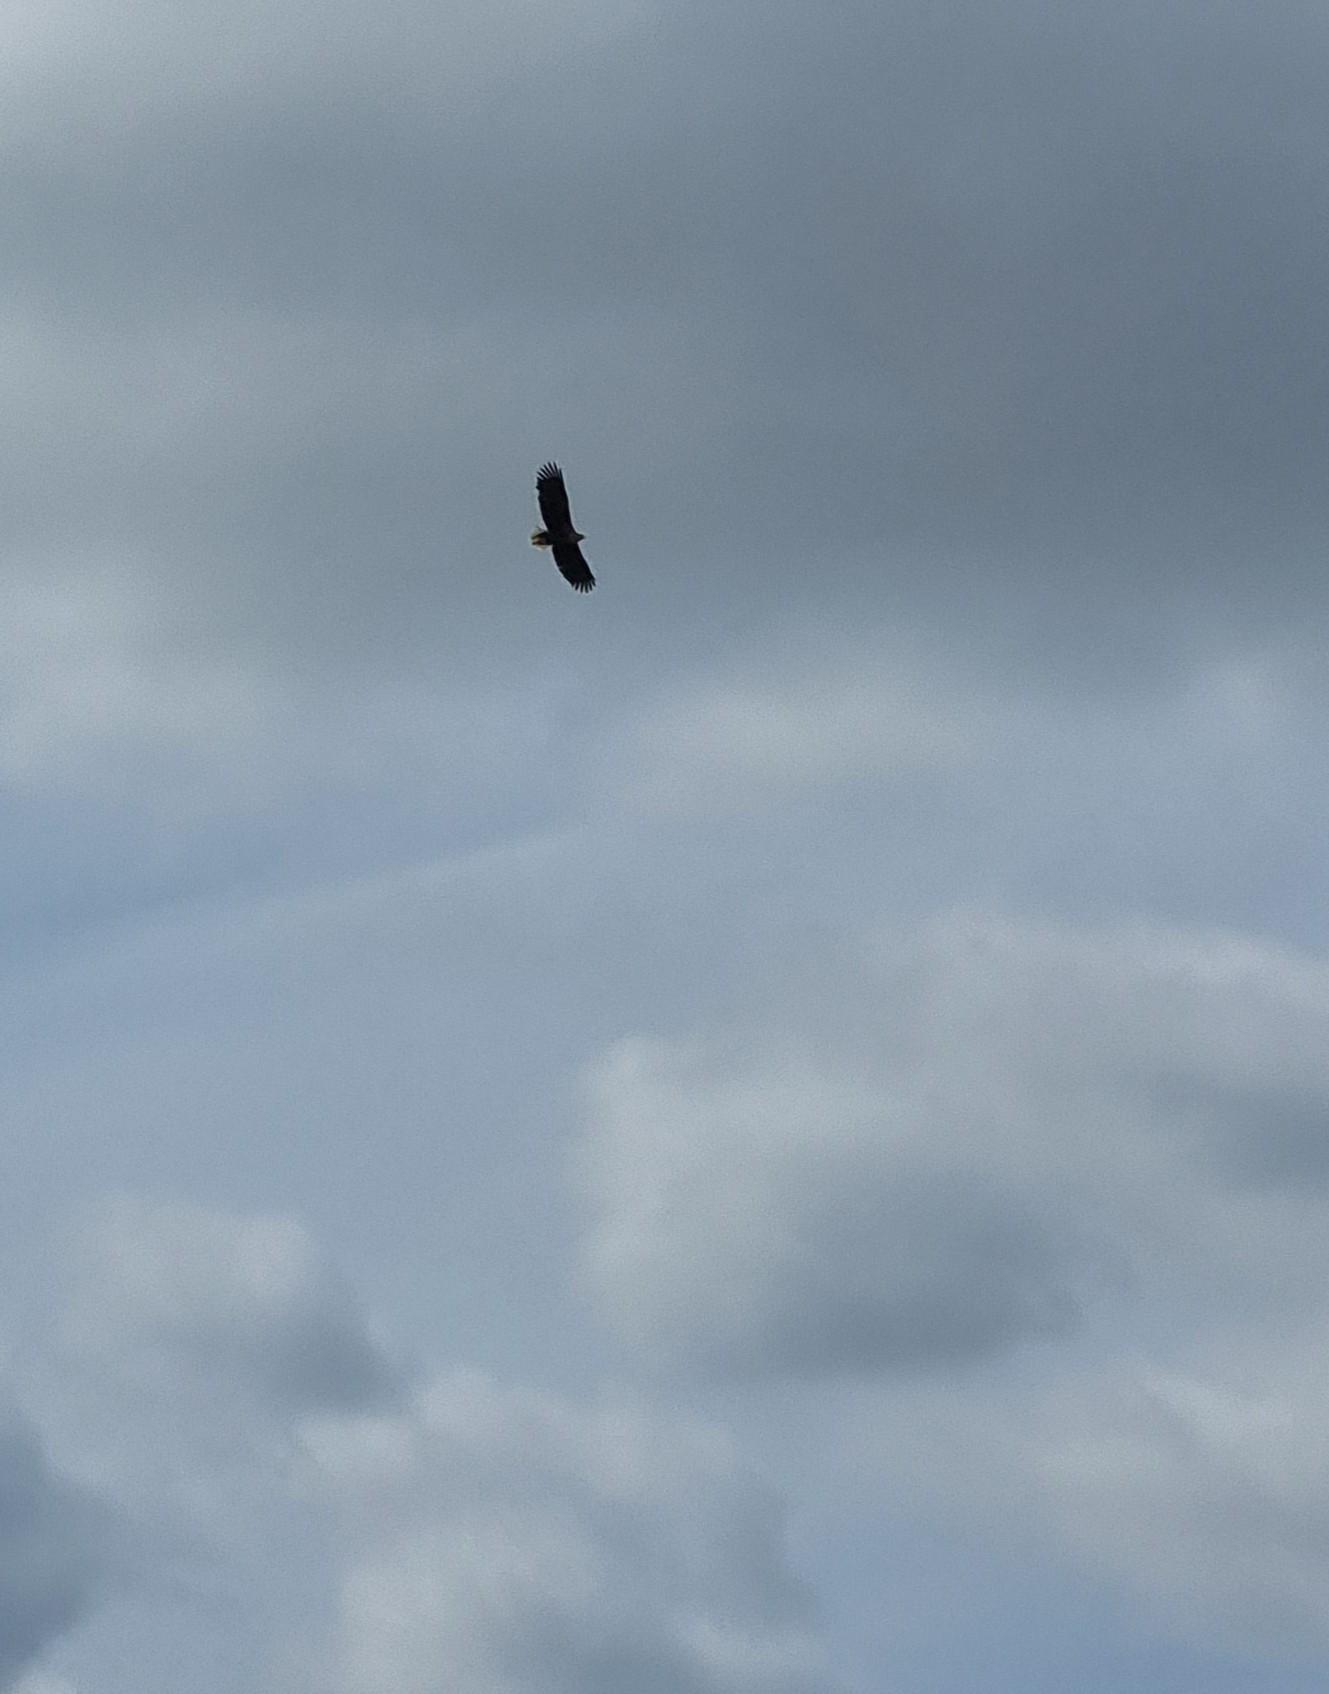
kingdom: Animalia
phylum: Chordata
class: Aves
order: Accipitriformes
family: Accipitridae
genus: Haliaeetus
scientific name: Haliaeetus albicilla
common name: Havørn
